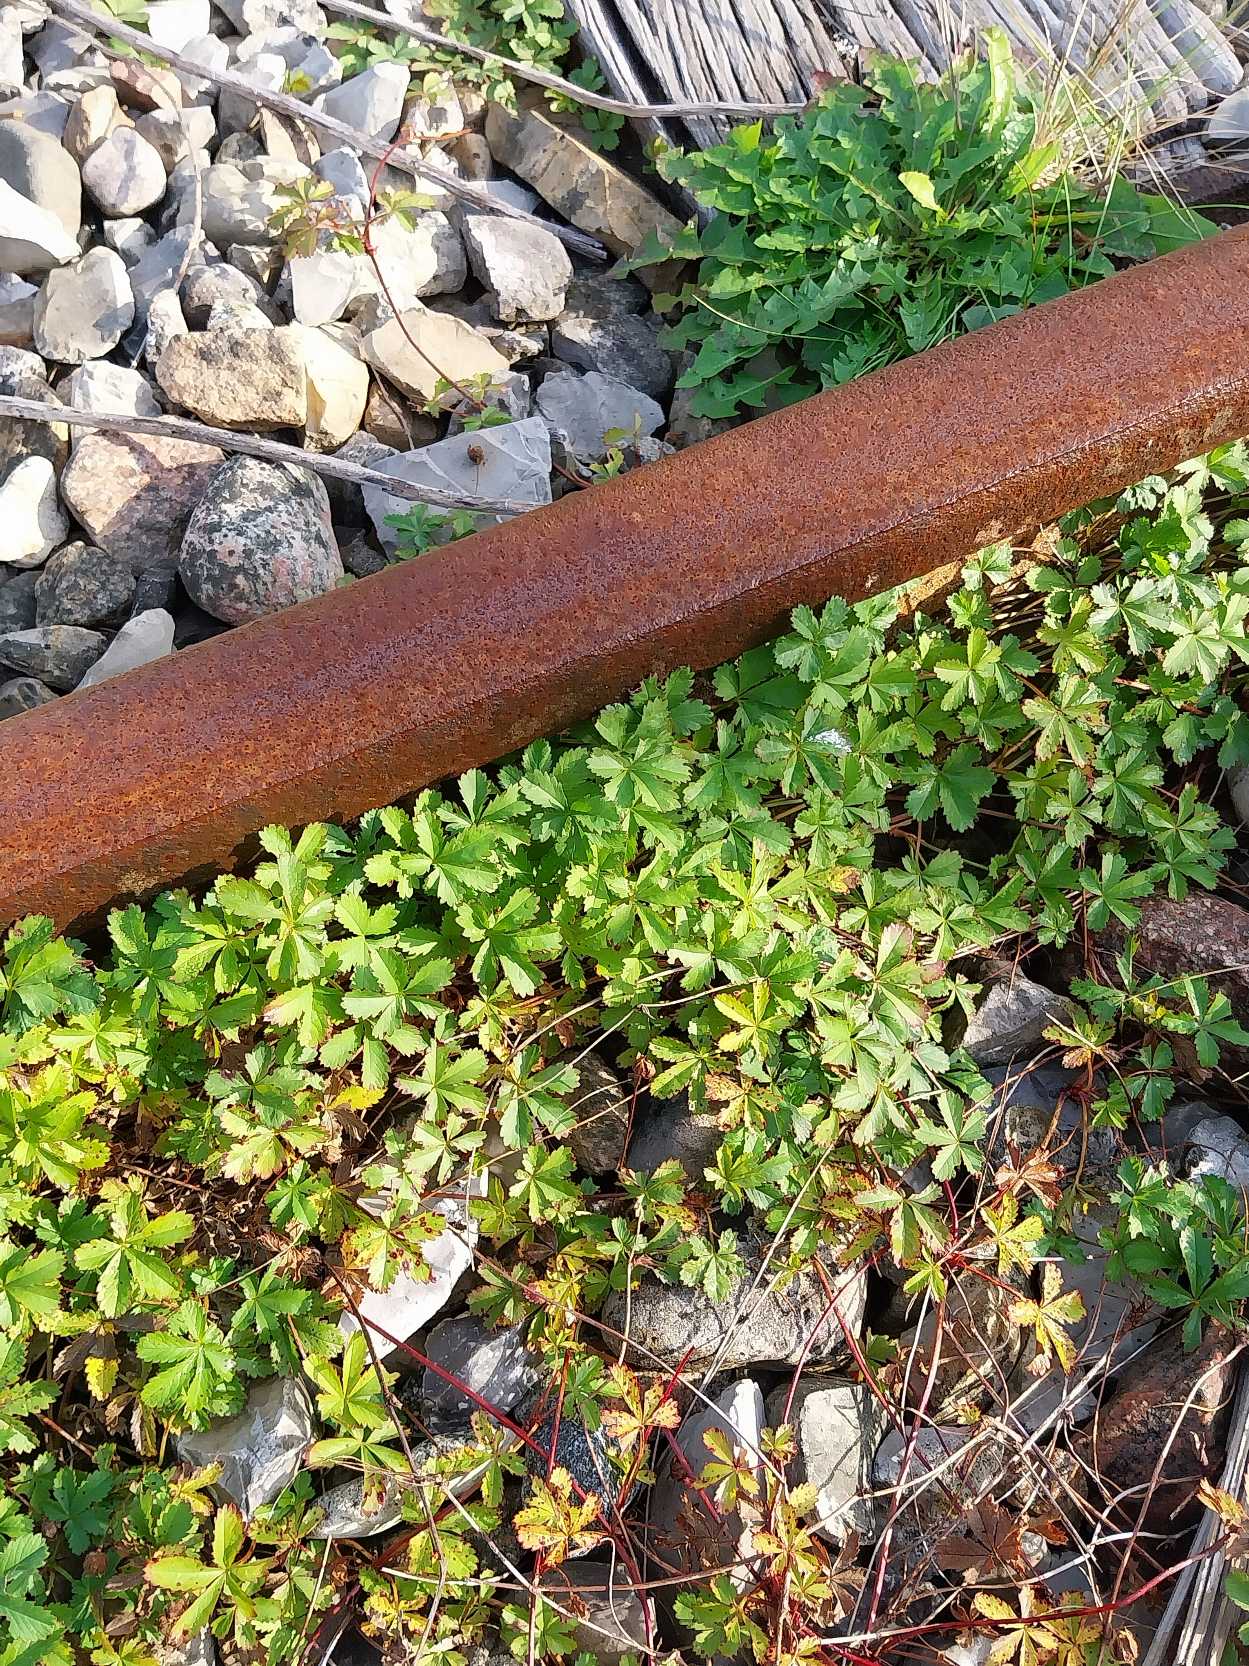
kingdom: Plantae
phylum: Tracheophyta
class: Magnoliopsida
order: Rosales
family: Rosaceae
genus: Potentilla
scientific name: Potentilla reptans
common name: Krybende potentil
